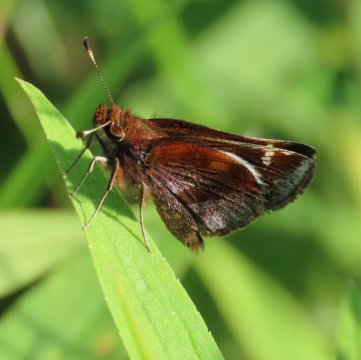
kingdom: Animalia
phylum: Arthropoda
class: Insecta
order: Lepidoptera
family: Hesperiidae
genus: Lon
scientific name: Lon zabulon
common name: Zabulon Skipper
